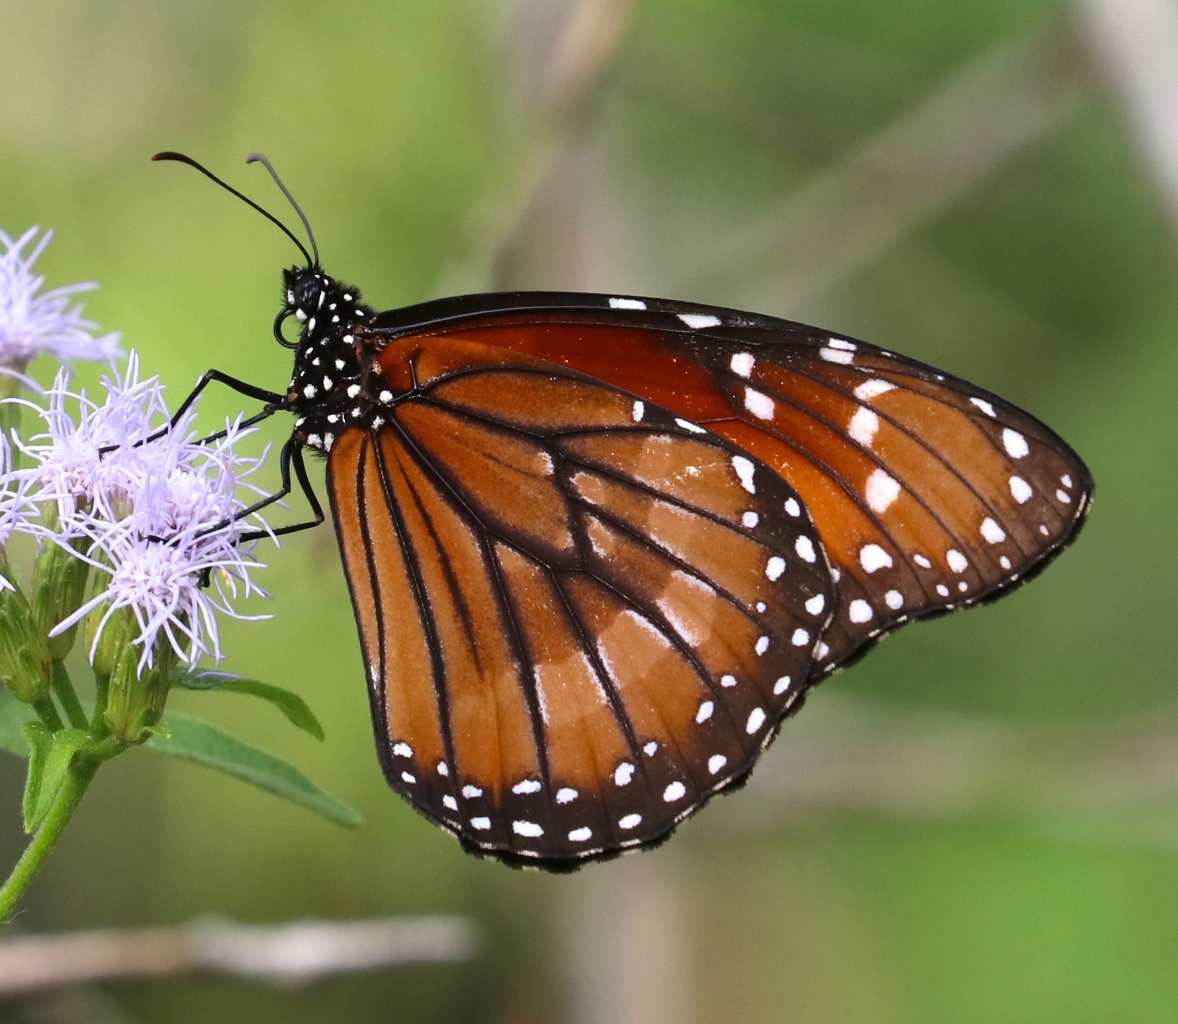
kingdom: Animalia
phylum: Arthropoda
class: Insecta
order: Lepidoptera
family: Nymphalidae
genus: Danaus
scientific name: Danaus eresimus
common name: Soldier
